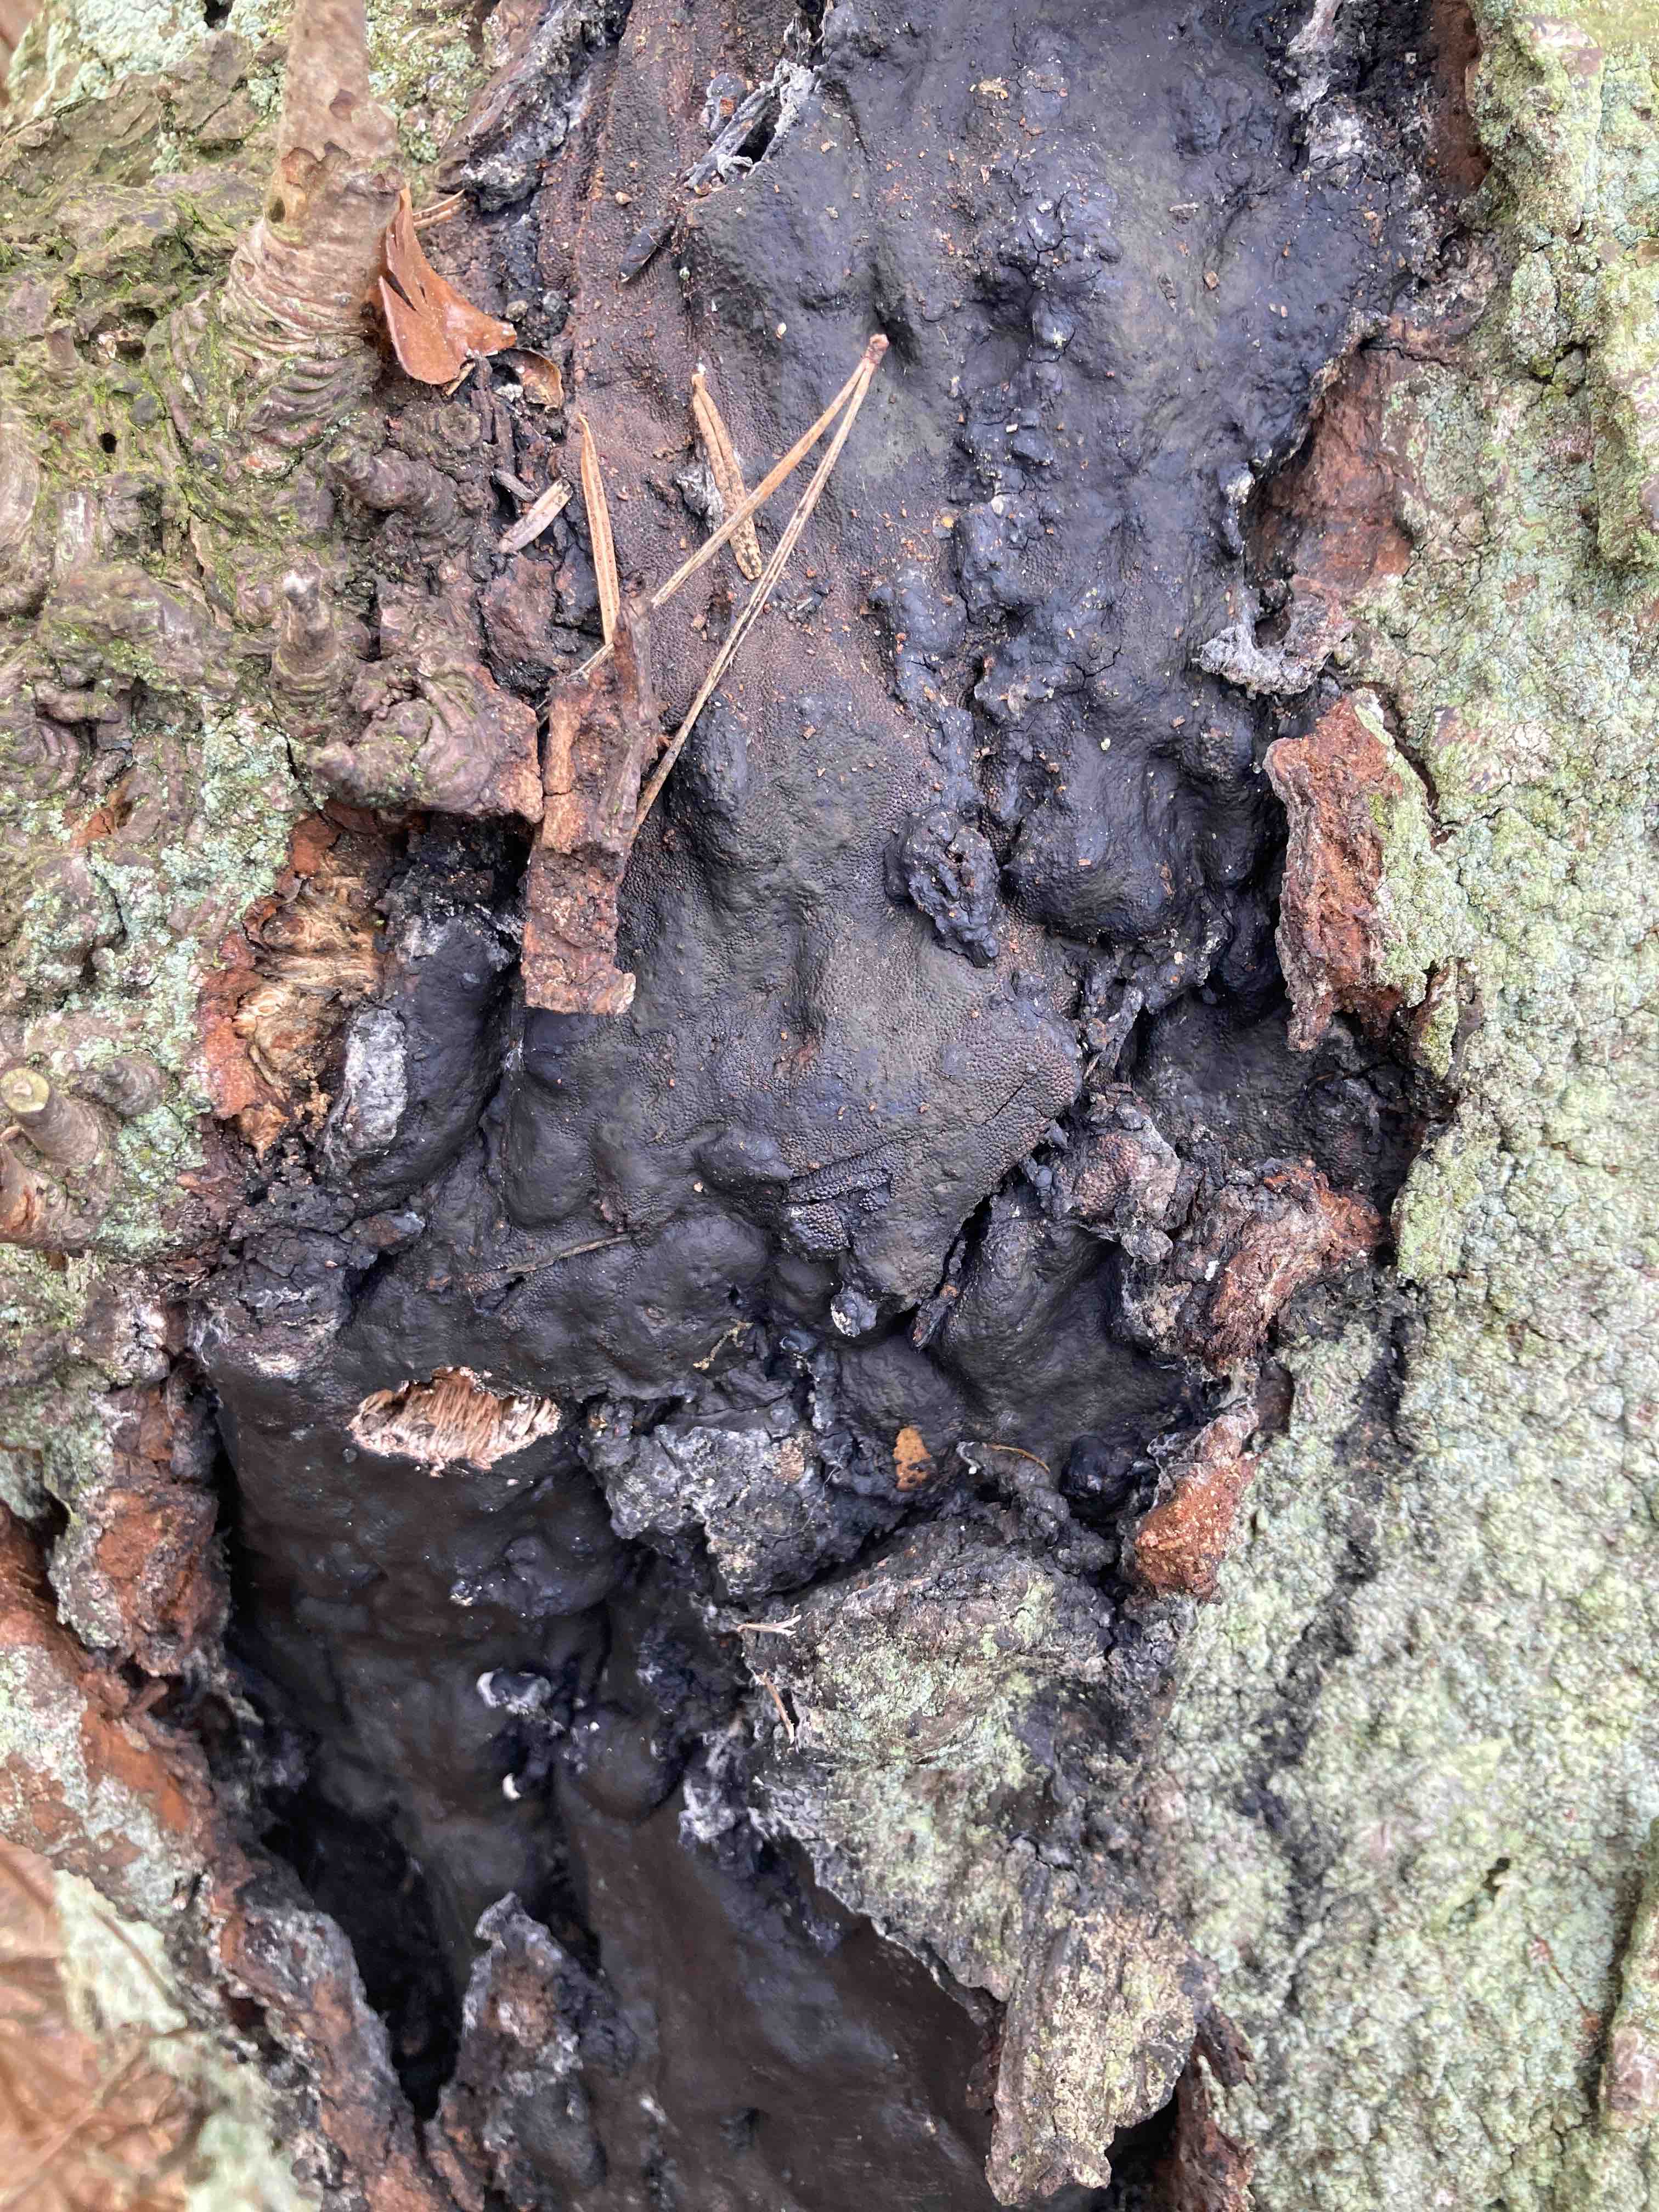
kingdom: Fungi
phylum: Ascomycota
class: Sordariomycetes
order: Boliniales
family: Boliniaceae
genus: Camarops
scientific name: Camarops polysperma
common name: elle-kulsnegl
